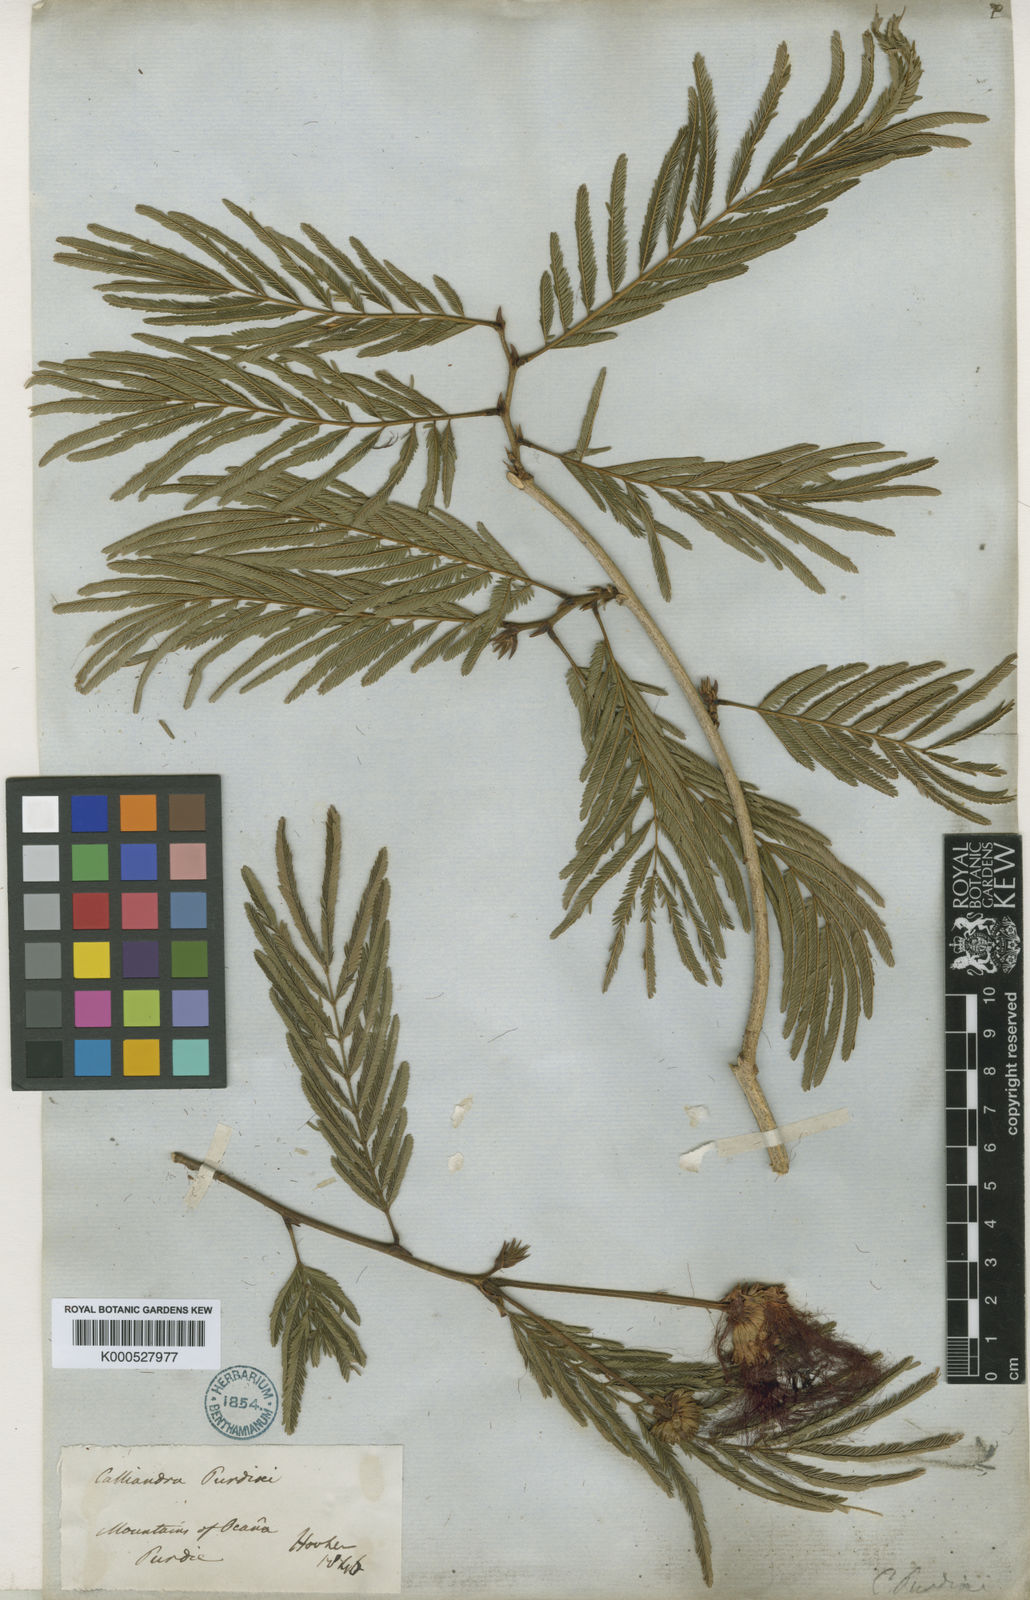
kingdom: Plantae
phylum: Tracheophyta
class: Magnoliopsida
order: Fabales
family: Fabaceae
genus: Calliandra
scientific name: Calliandra purdiei
